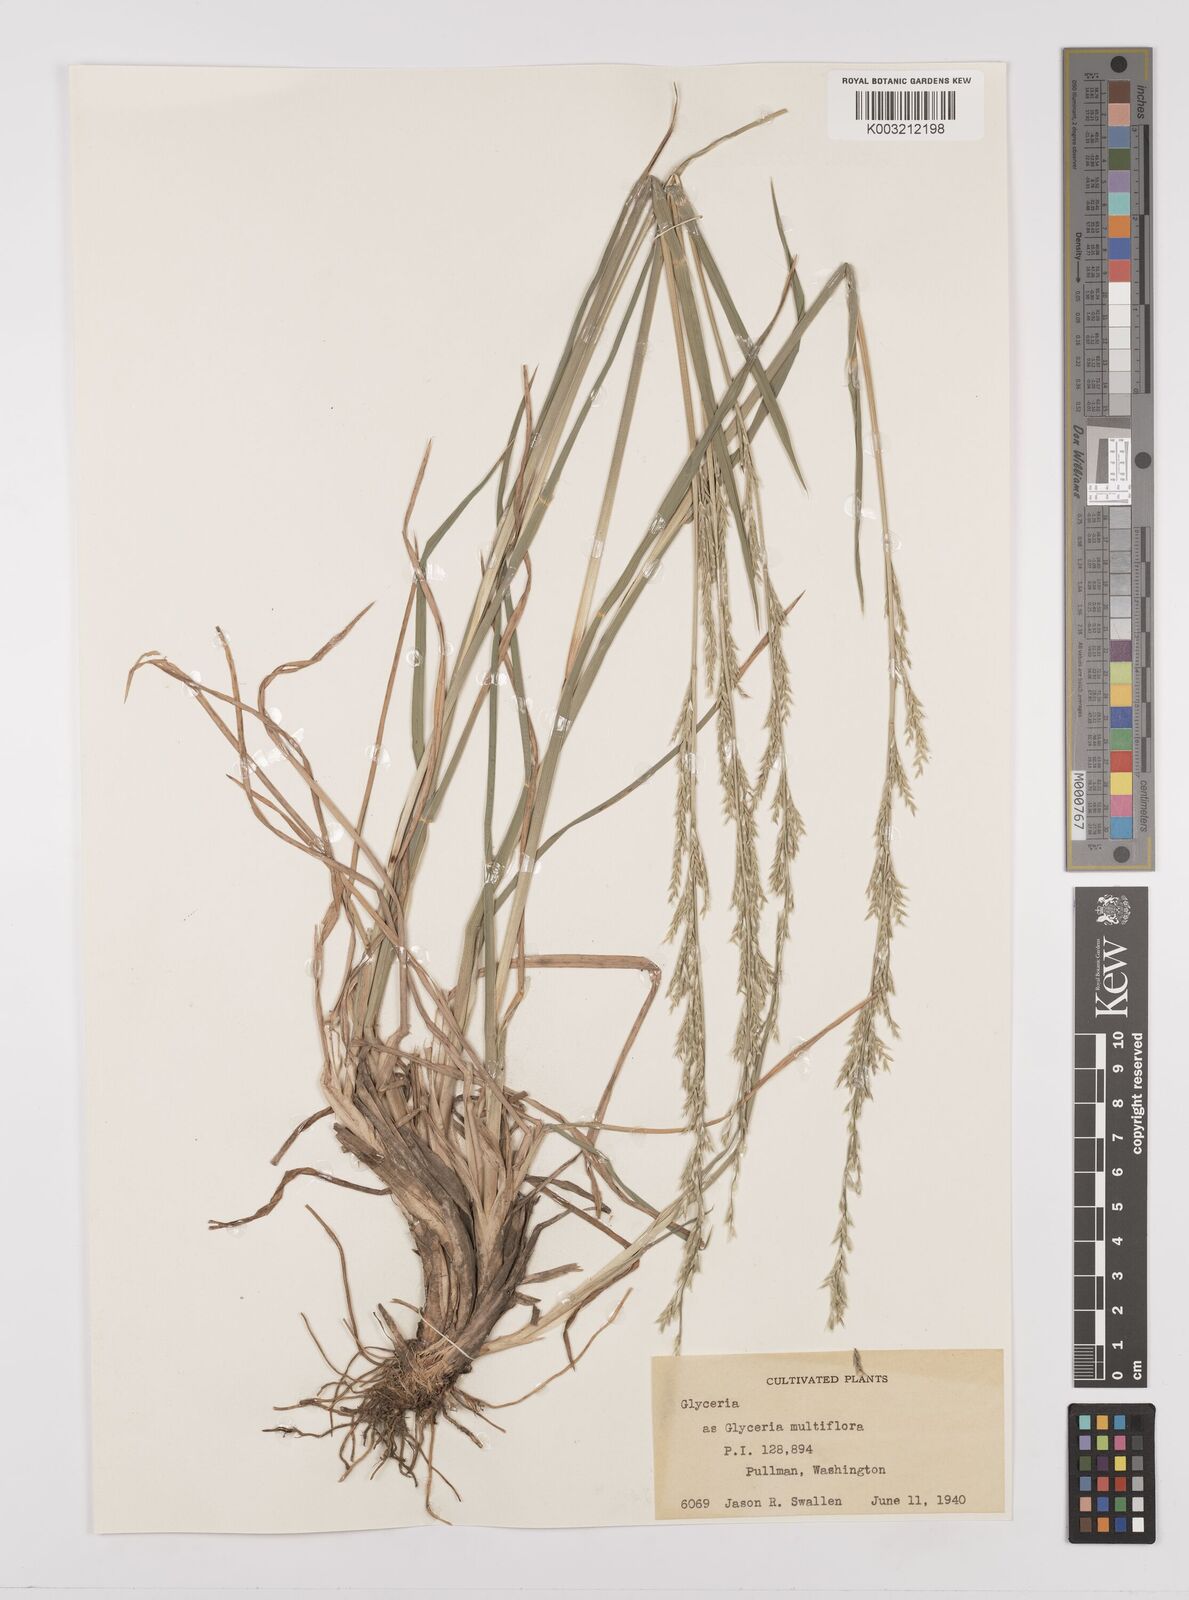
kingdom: Plantae
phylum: Tracheophyta
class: Liliopsida
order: Poales
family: Poaceae
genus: Glyceria
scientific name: Glyceria pulchella
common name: Mackenzie valley mannagrass
